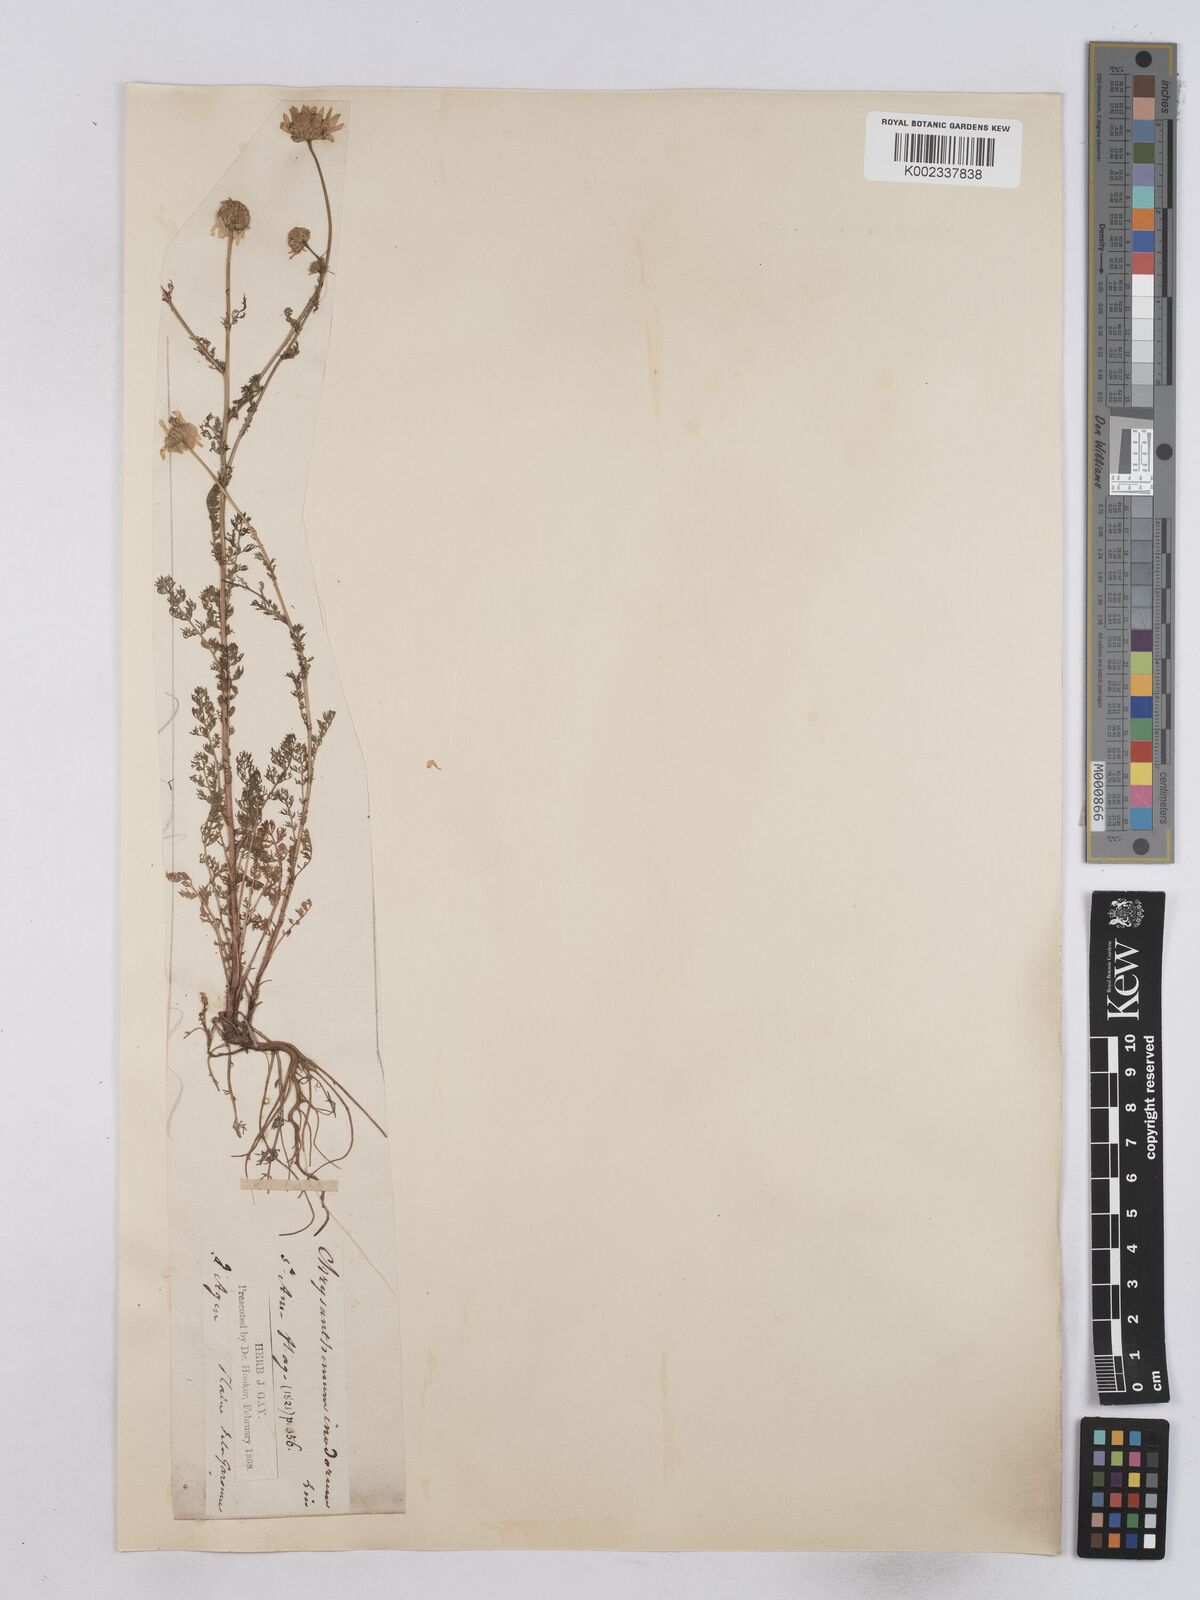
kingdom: Plantae
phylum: Tracheophyta
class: Magnoliopsida
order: Asterales
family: Asteraceae
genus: Matricaria
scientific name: Matricaria chamomilla
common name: Scented mayweed
